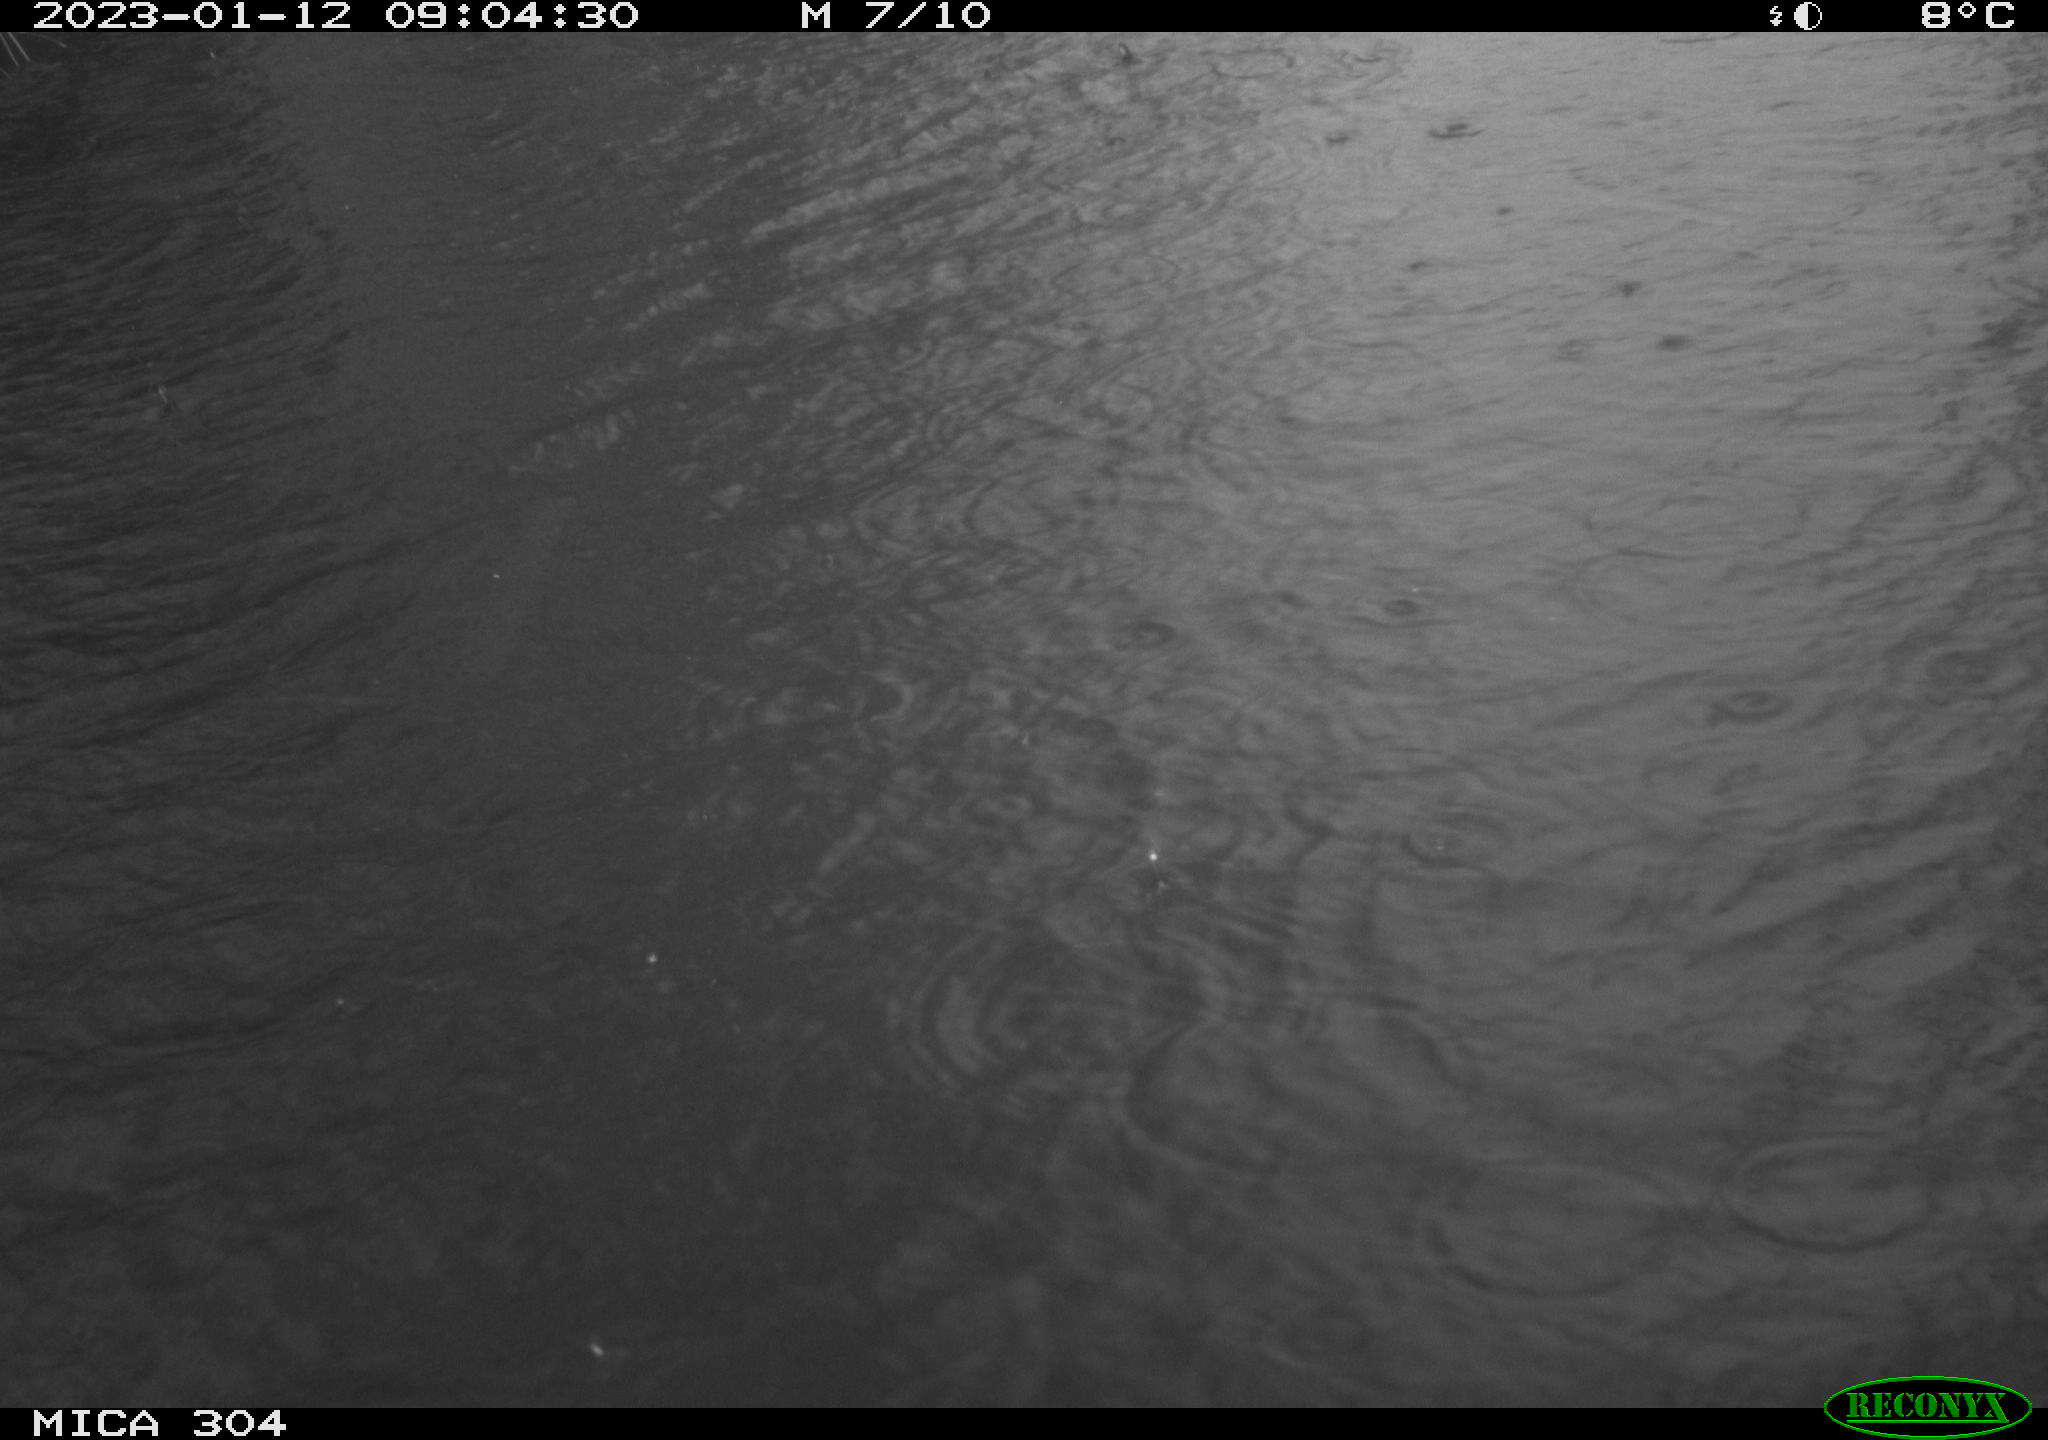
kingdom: Animalia
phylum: Chordata
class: Aves
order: Anseriformes
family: Anatidae
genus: Anas
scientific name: Anas
